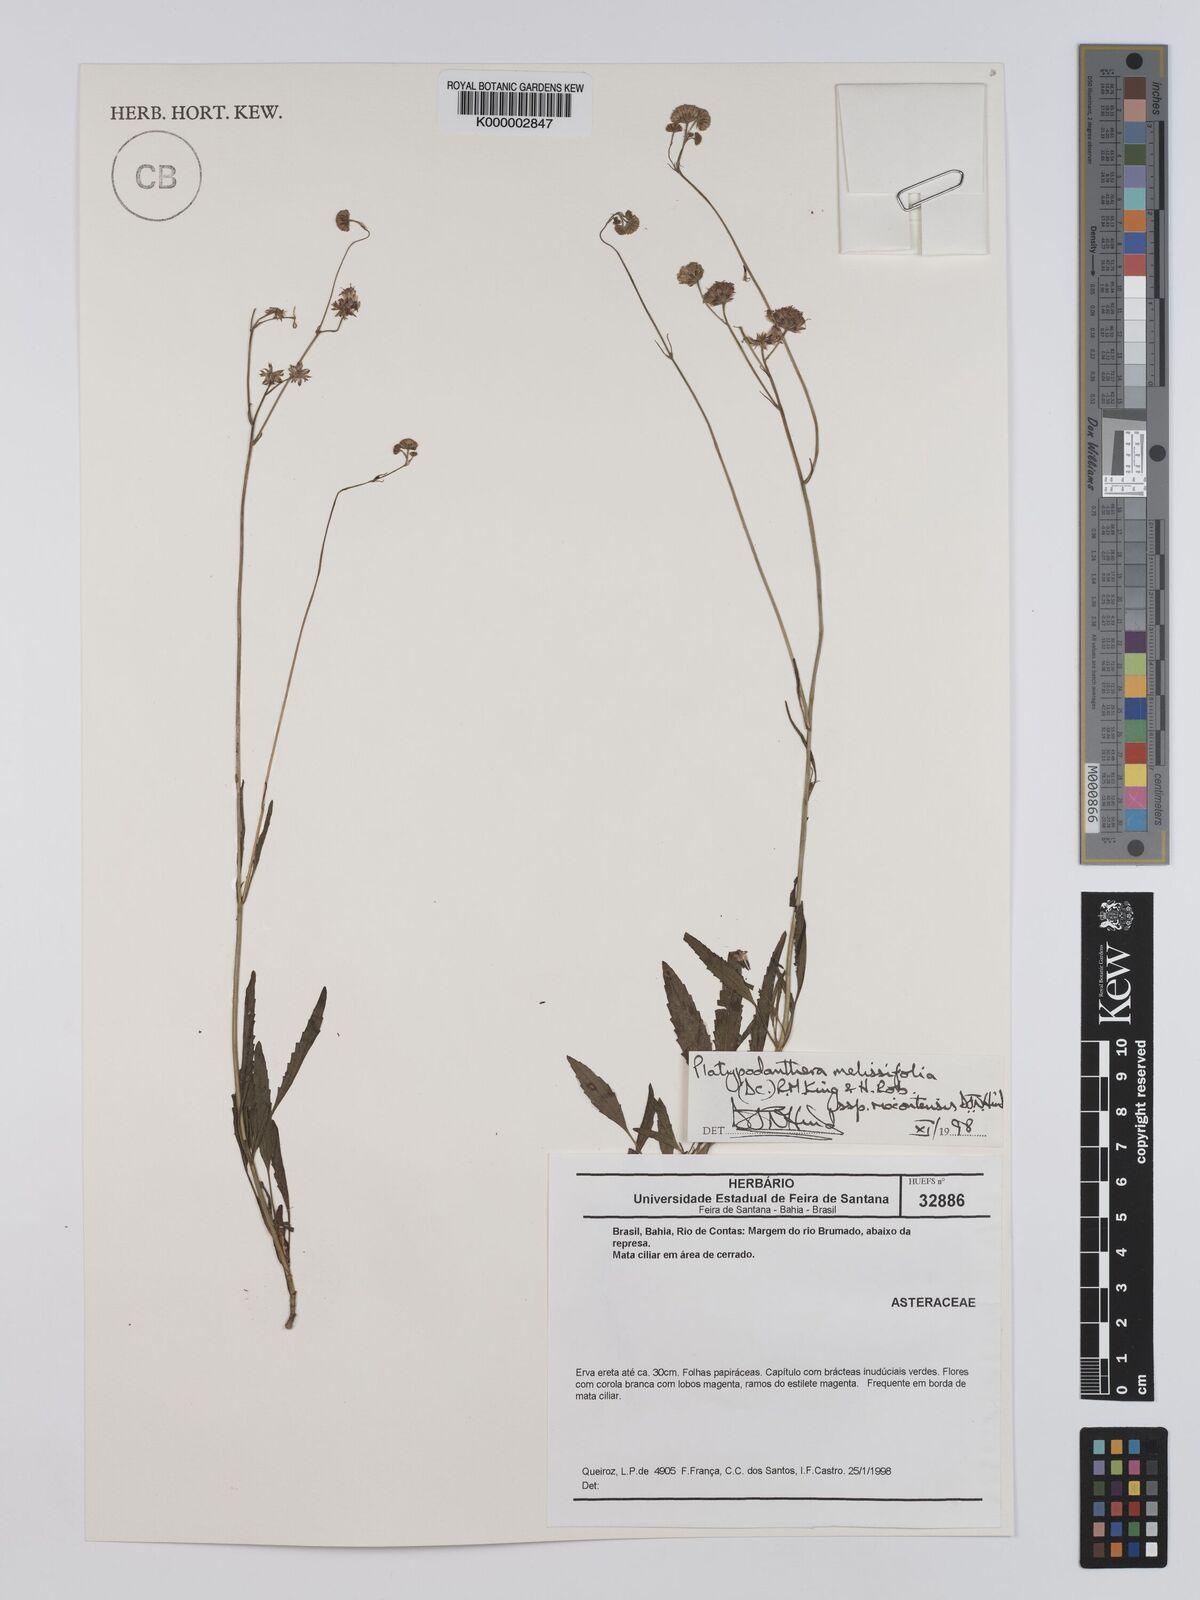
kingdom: Plantae
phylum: Tracheophyta
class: Magnoliopsida
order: Asterales
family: Asteraceae
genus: Platypodanthera
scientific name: Platypodanthera melissifolia
